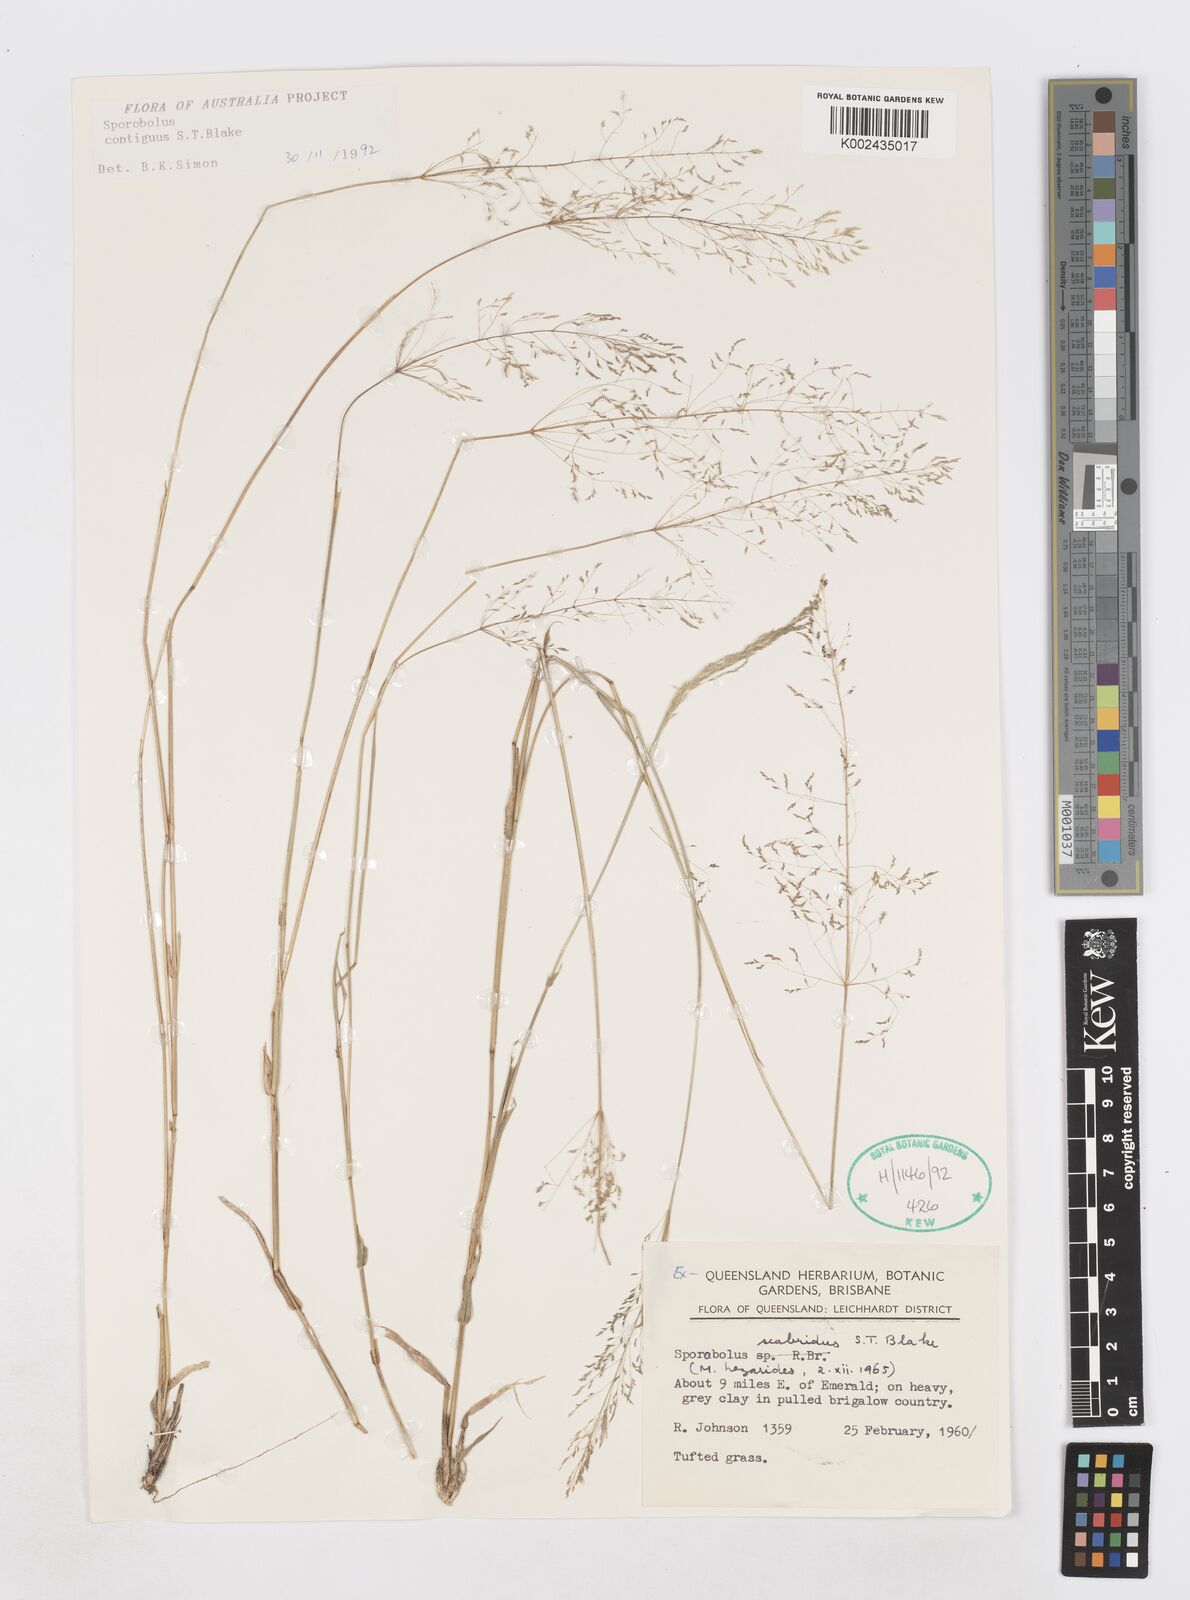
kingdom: Plantae
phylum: Tracheophyta
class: Liliopsida
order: Poales
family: Poaceae
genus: Sporobolus
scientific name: Sporobolus scabridus
